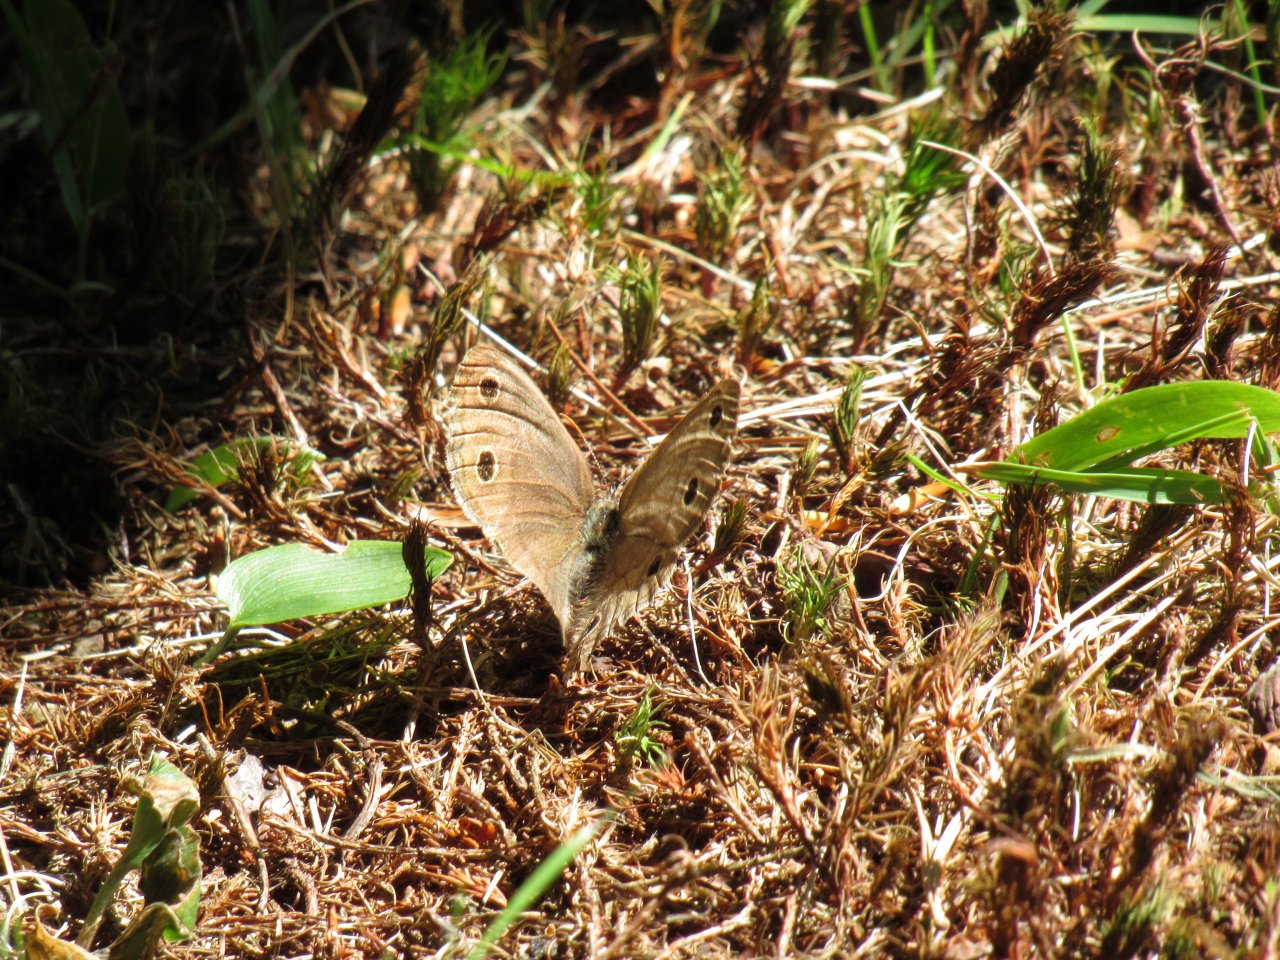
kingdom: Animalia
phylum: Arthropoda
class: Insecta
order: Lepidoptera
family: Nymphalidae
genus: Euptychia
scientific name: Euptychia cymela
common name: Little Wood Satyr
